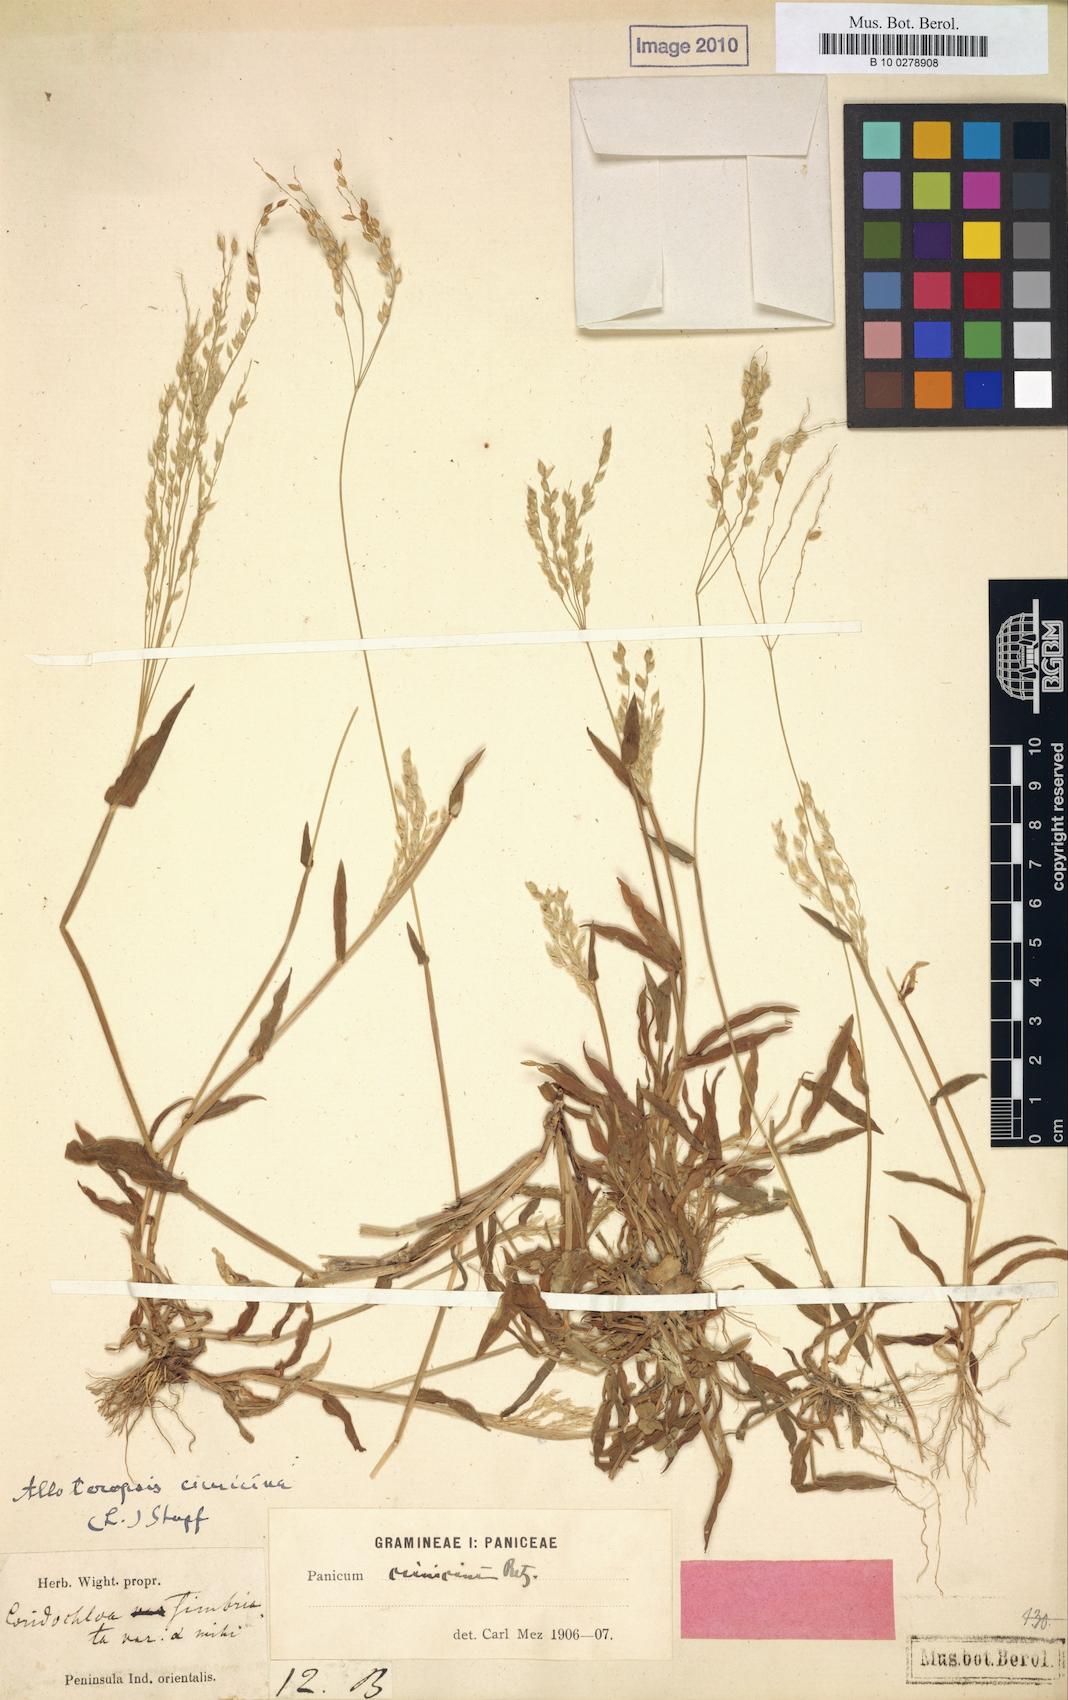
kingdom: Plantae
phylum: Tracheophyta
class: Liliopsida
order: Poales
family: Poaceae
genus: Alloteropsis
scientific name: Alloteropsis Coridochloa fimbriata
